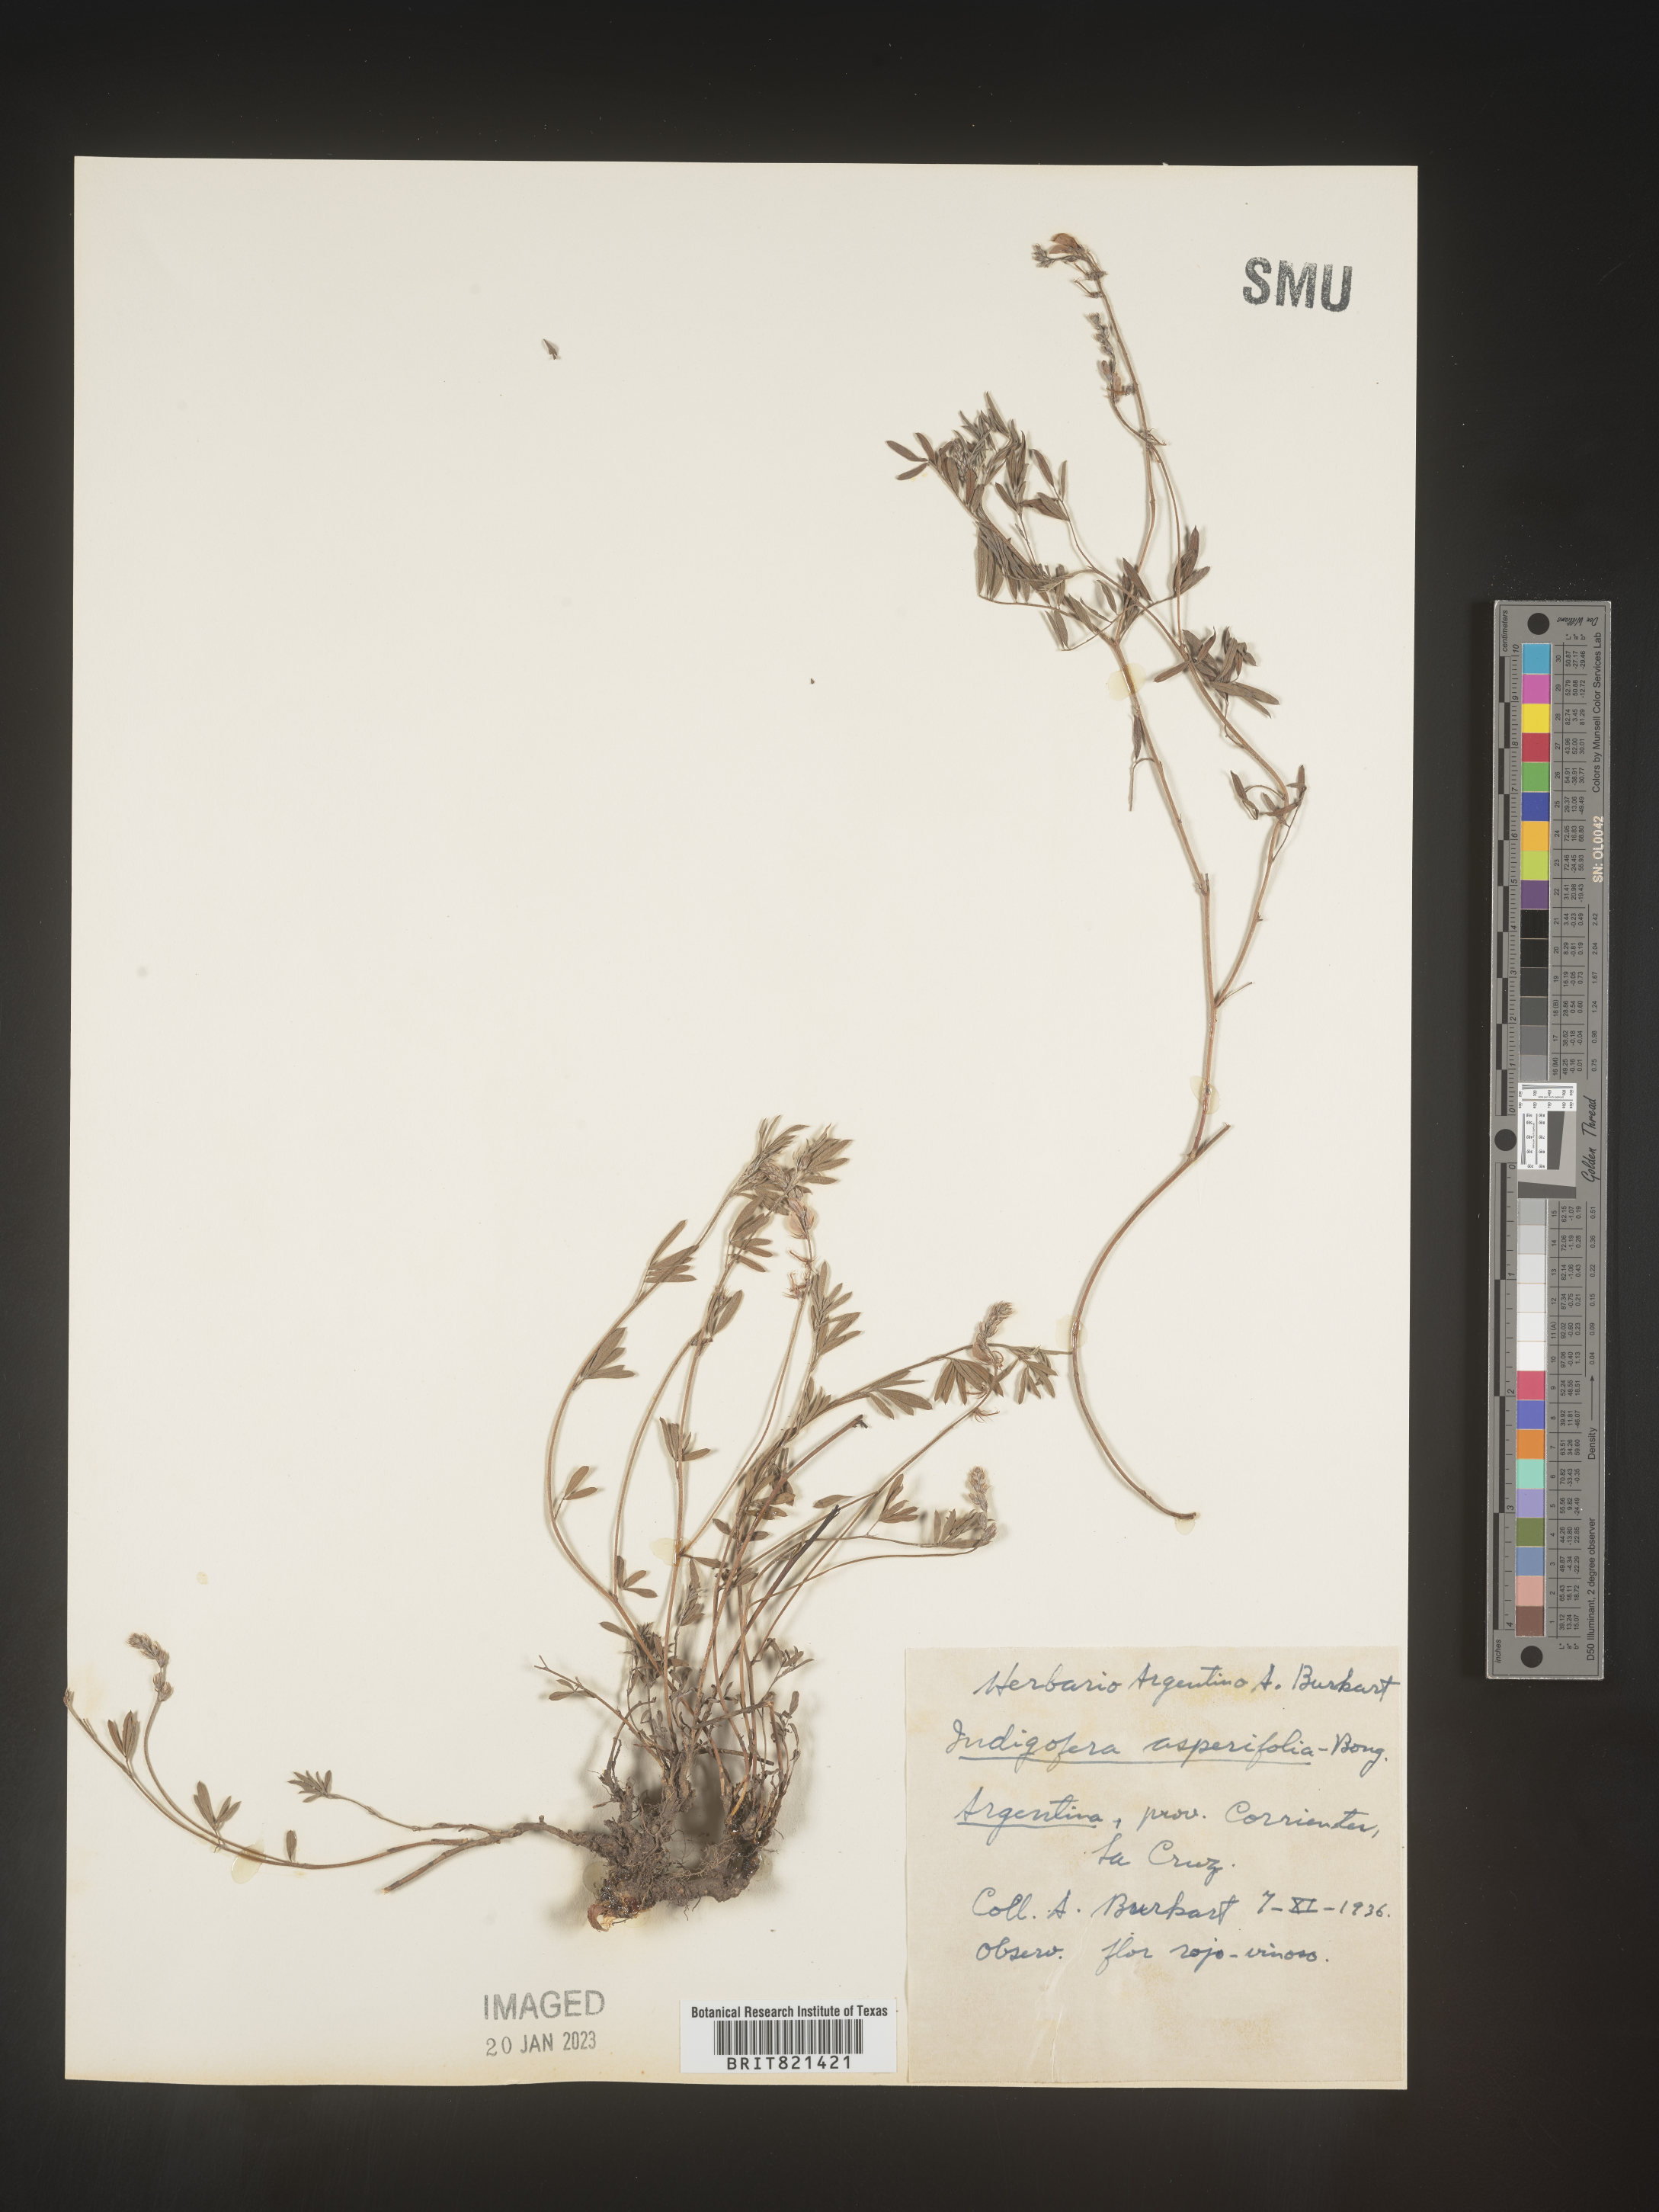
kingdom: Plantae
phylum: Tracheophyta
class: Magnoliopsida
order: Fabales
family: Fabaceae
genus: Indigofera
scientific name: Indigofera
